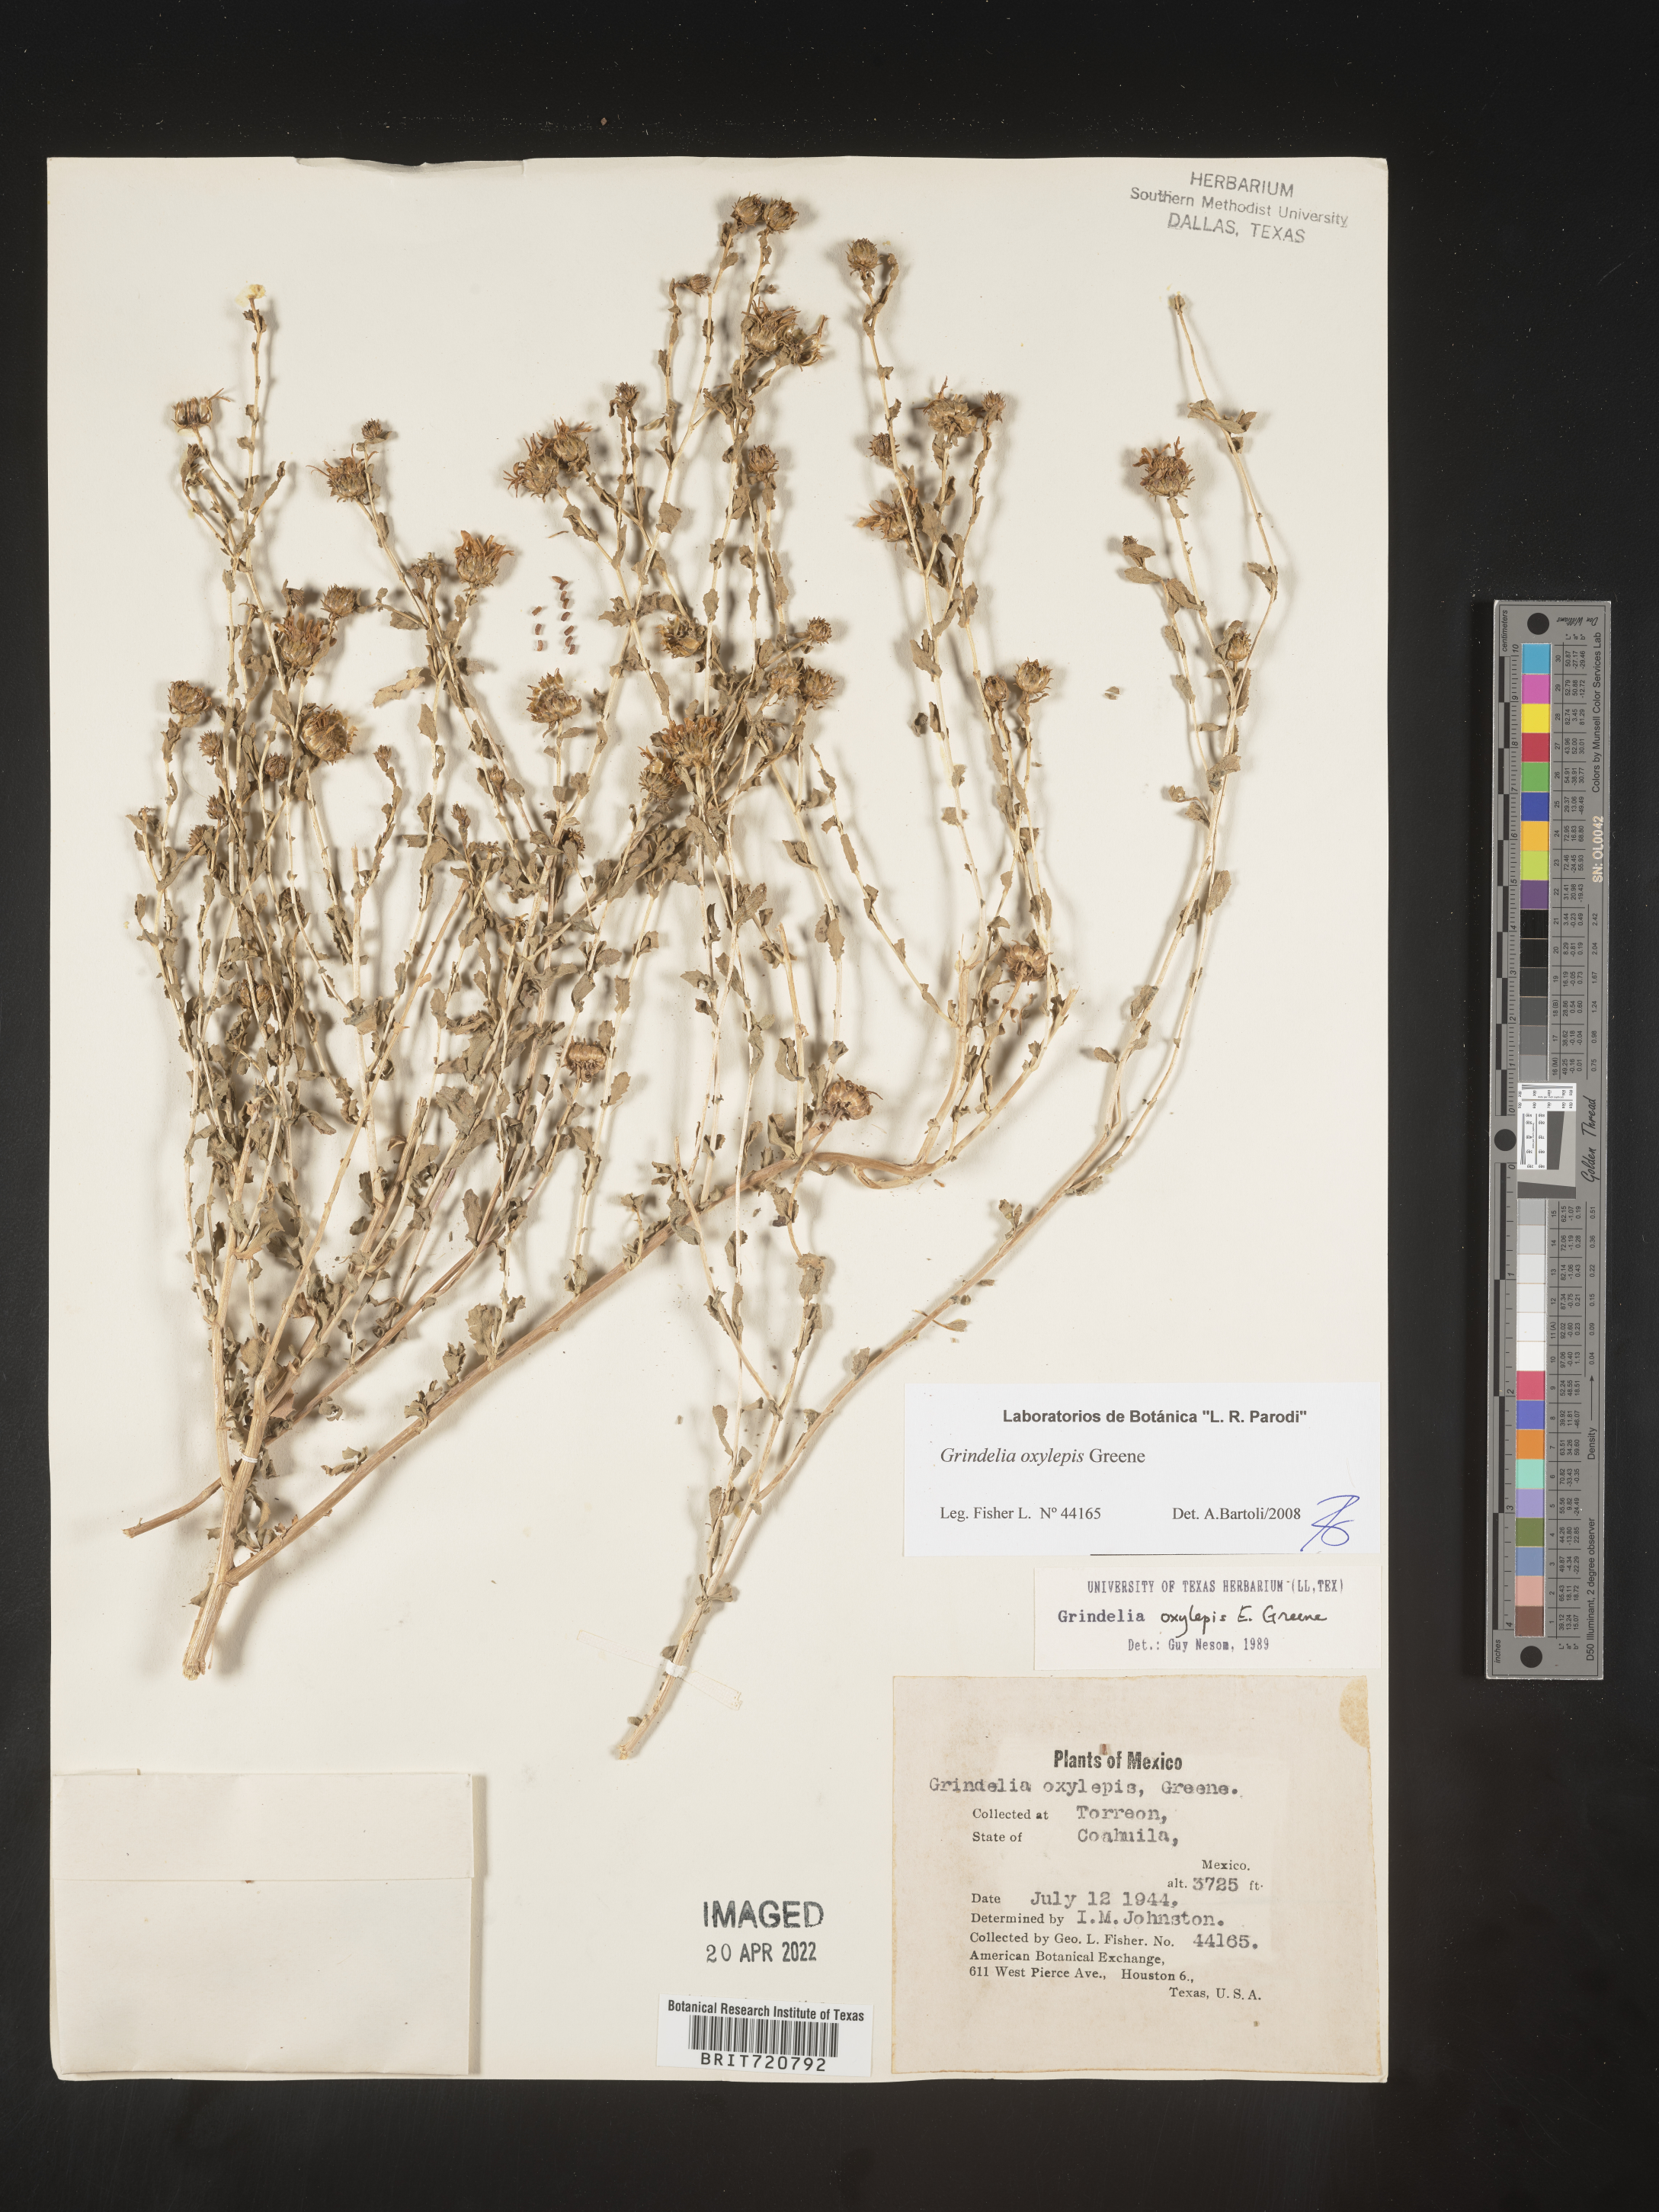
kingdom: Plantae
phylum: Tracheophyta
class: Magnoliopsida
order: Asterales
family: Asteraceae
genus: Grindelia
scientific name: Grindelia
